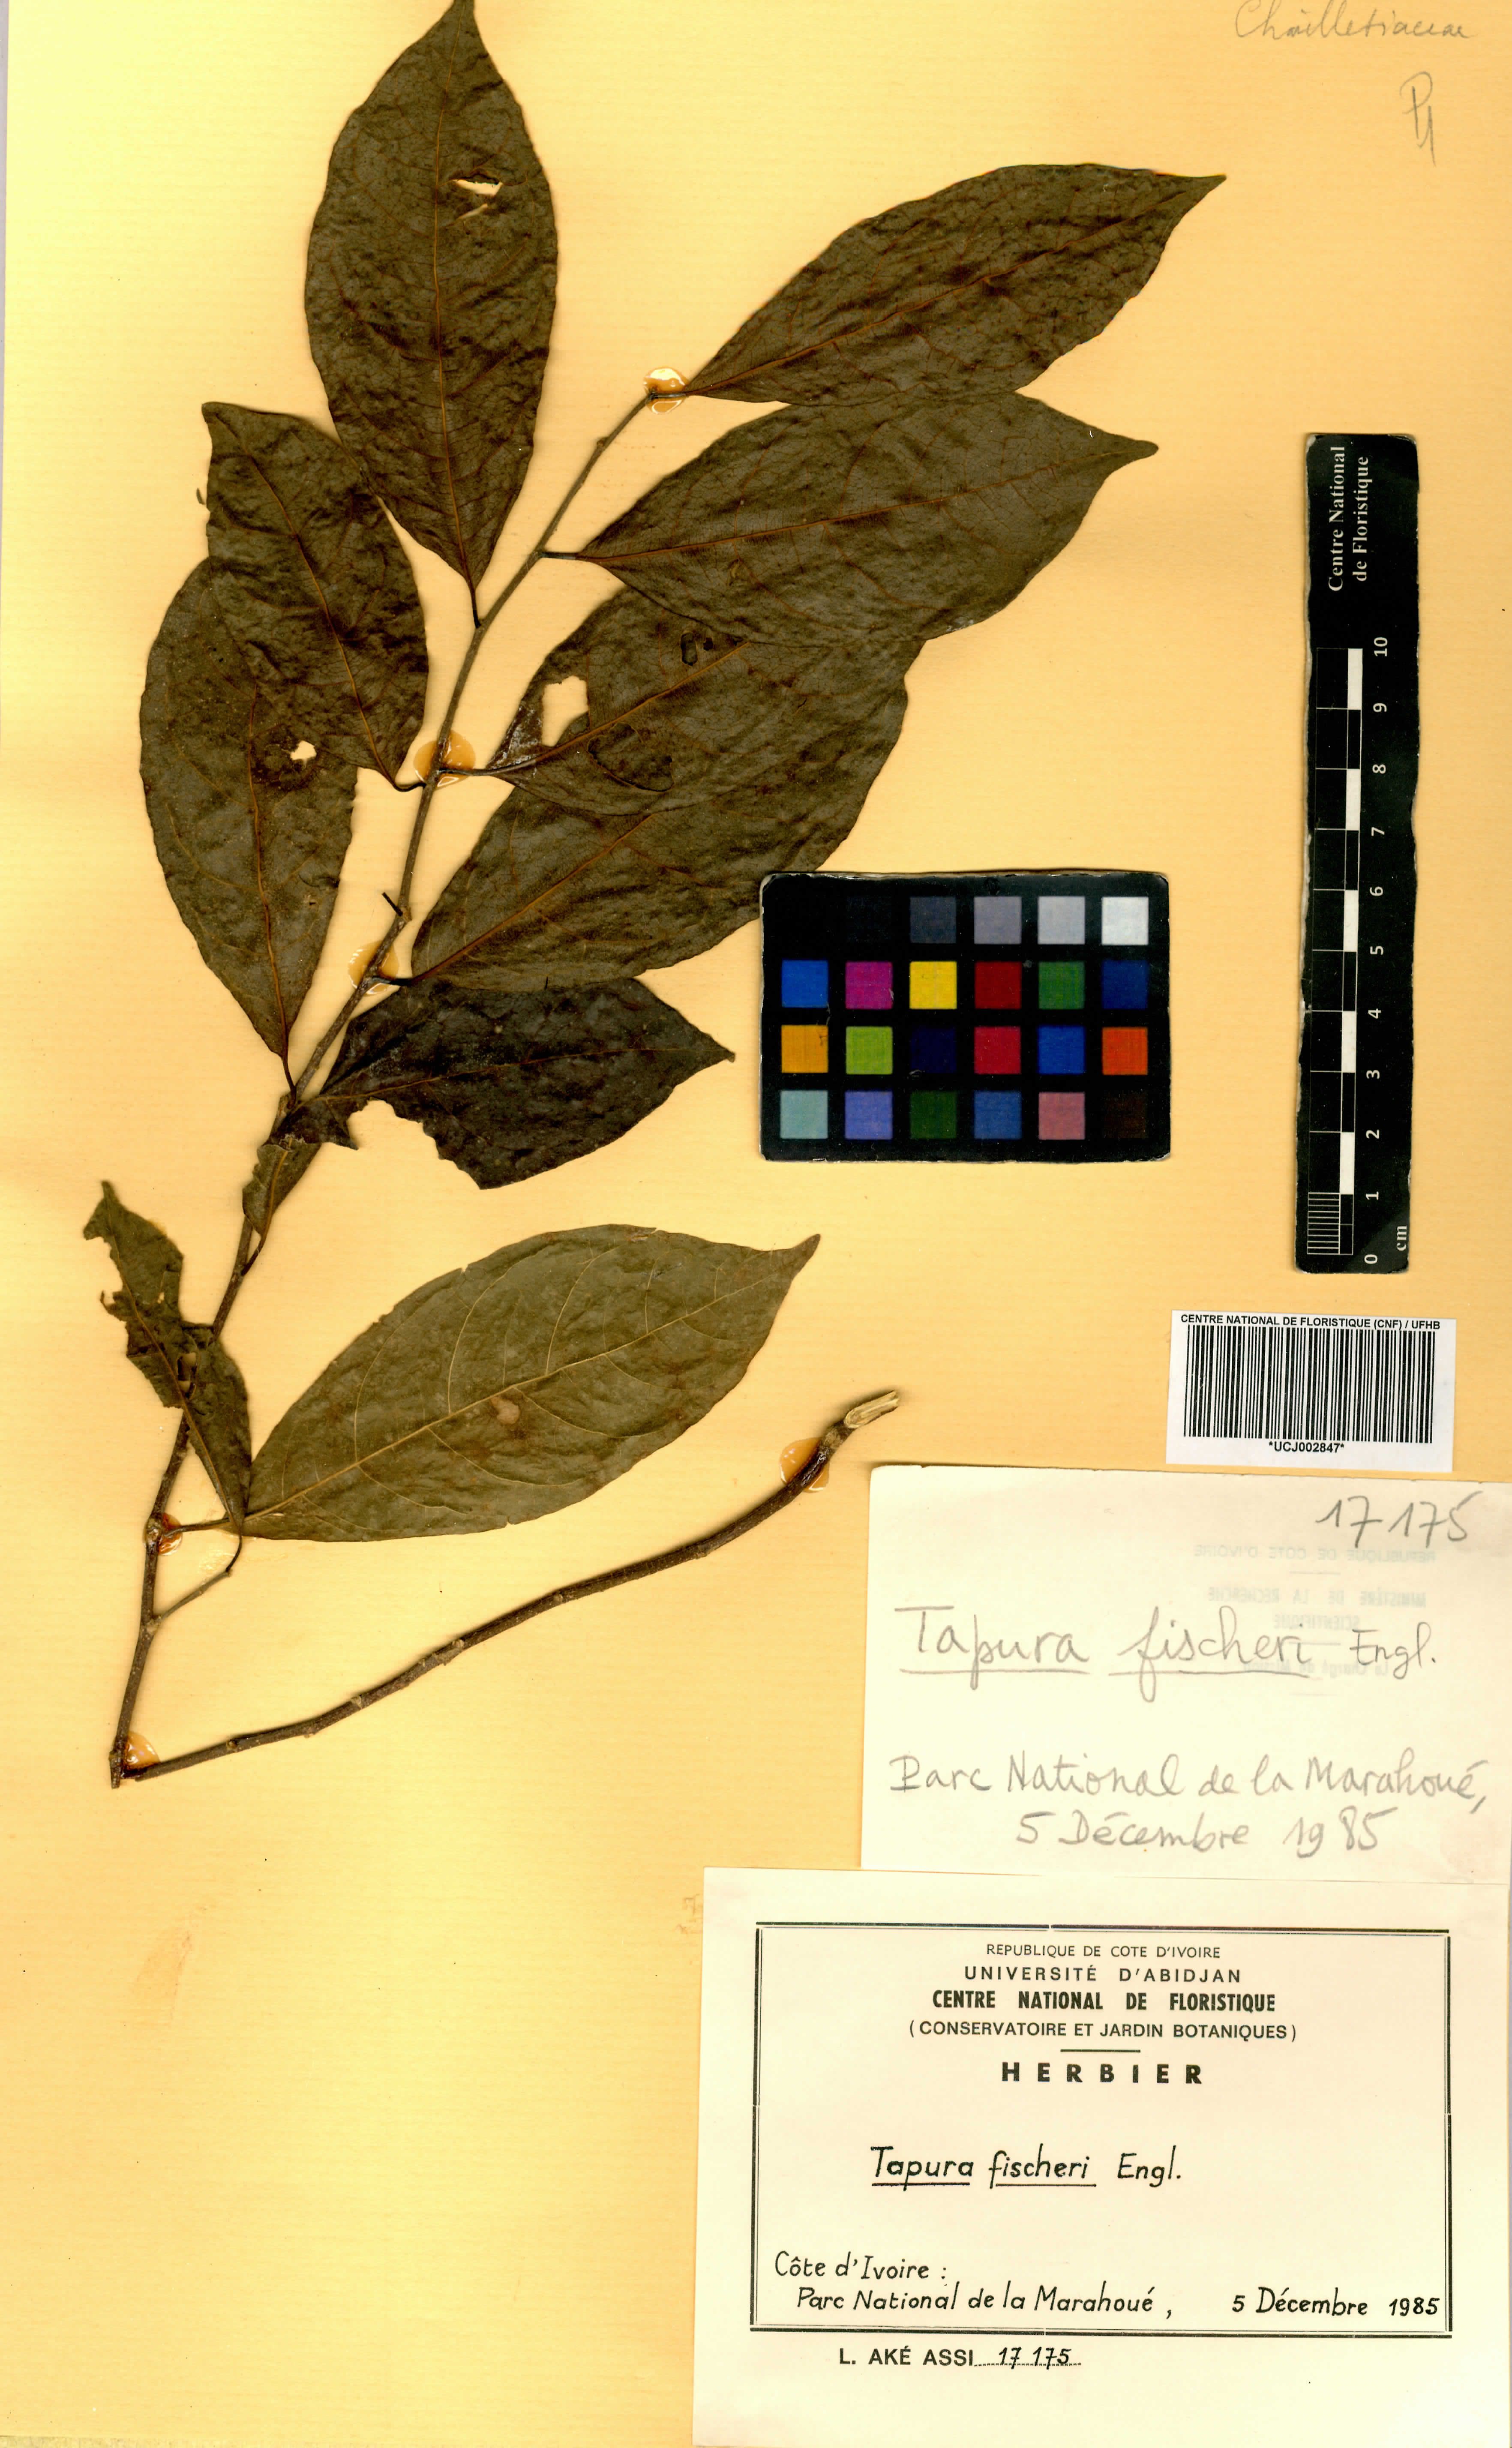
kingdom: Plantae
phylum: Tracheophyta
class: Magnoliopsida
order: Malpighiales
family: Dichapetalaceae
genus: Tapura
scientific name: Tapura fischeri
